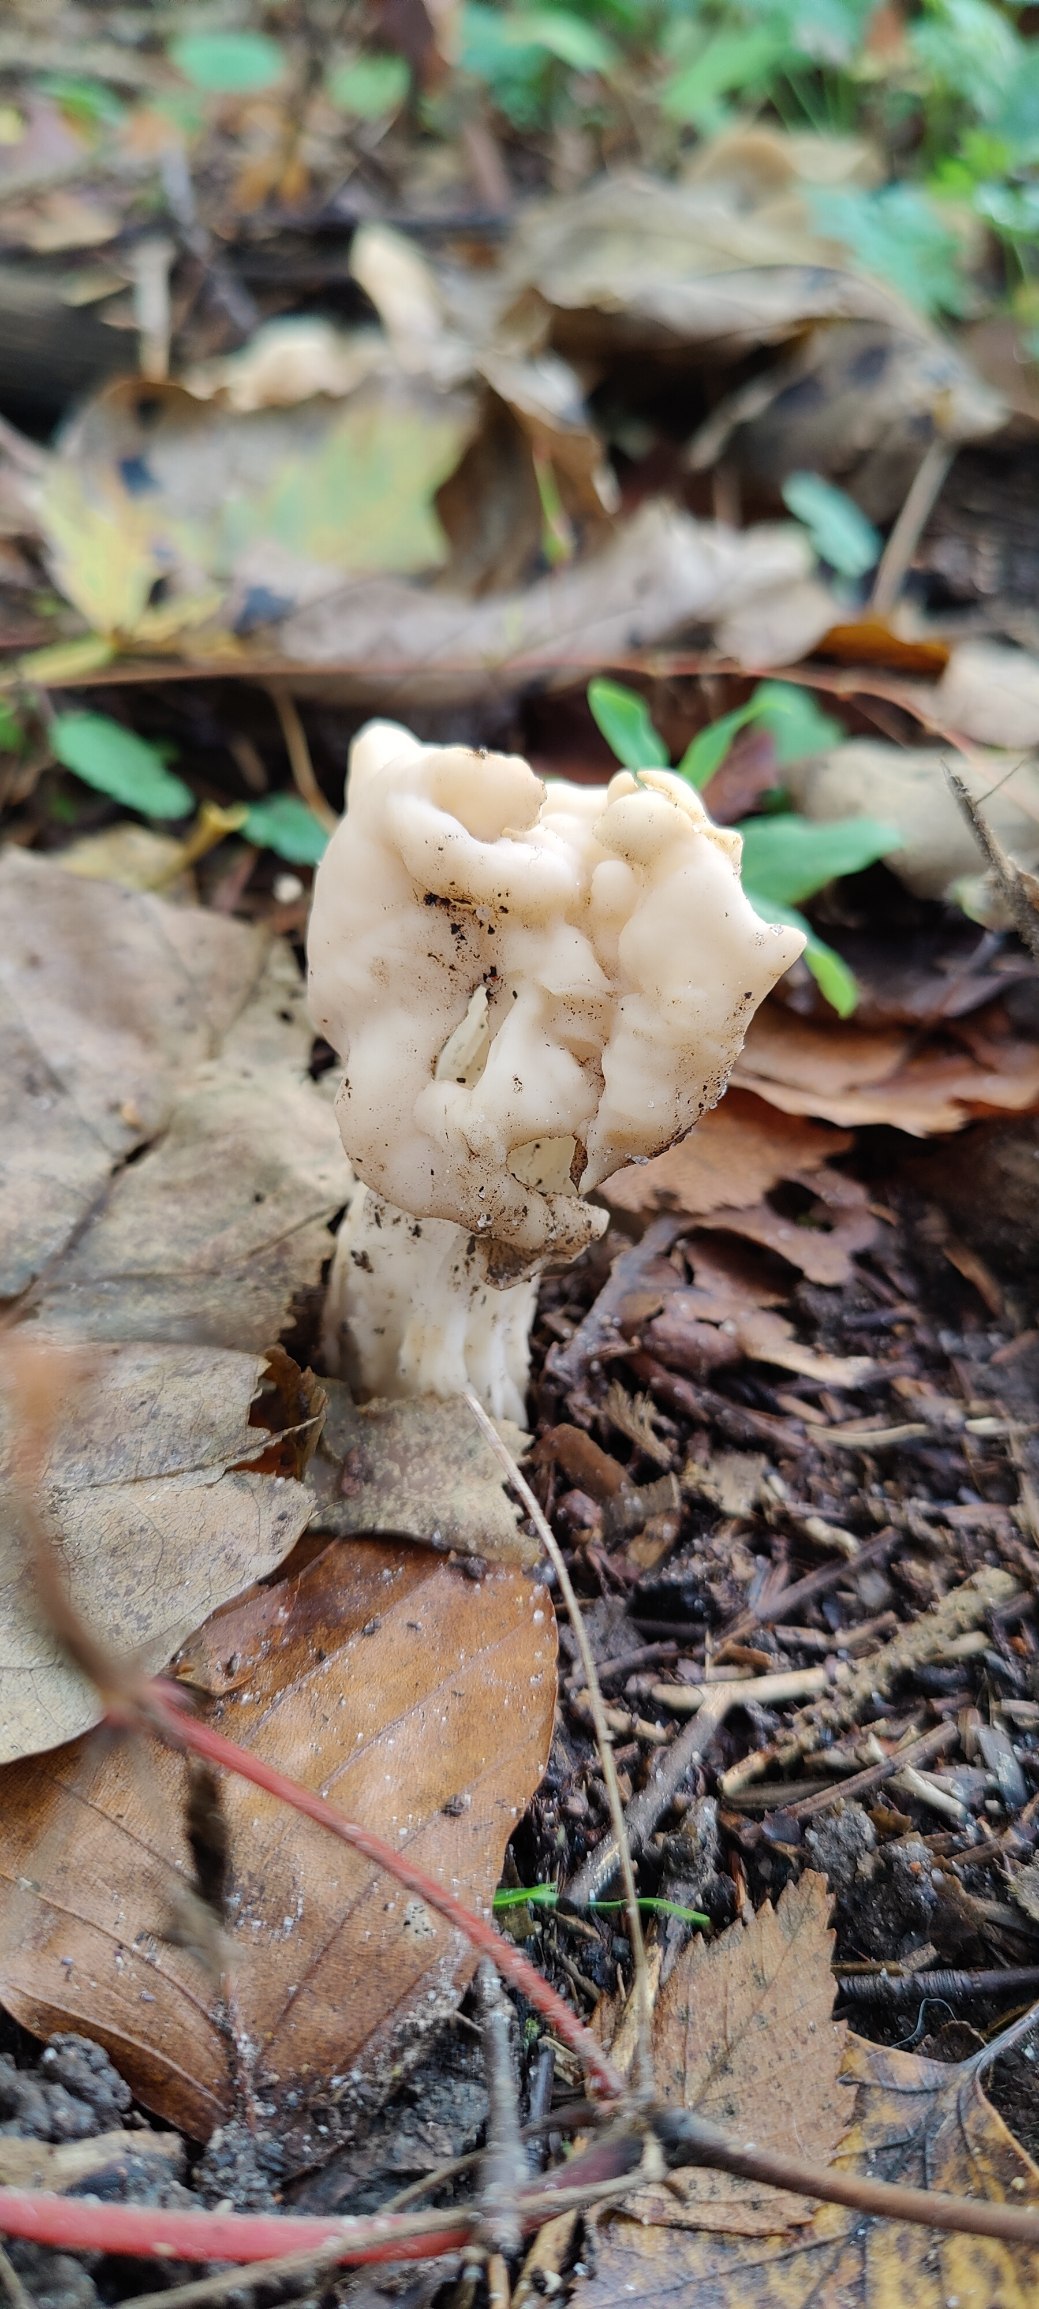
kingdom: Fungi
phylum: Ascomycota
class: Pezizomycetes
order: Pezizales
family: Helvellaceae
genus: Helvella
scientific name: Helvella crispa
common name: Kruset foldhat
